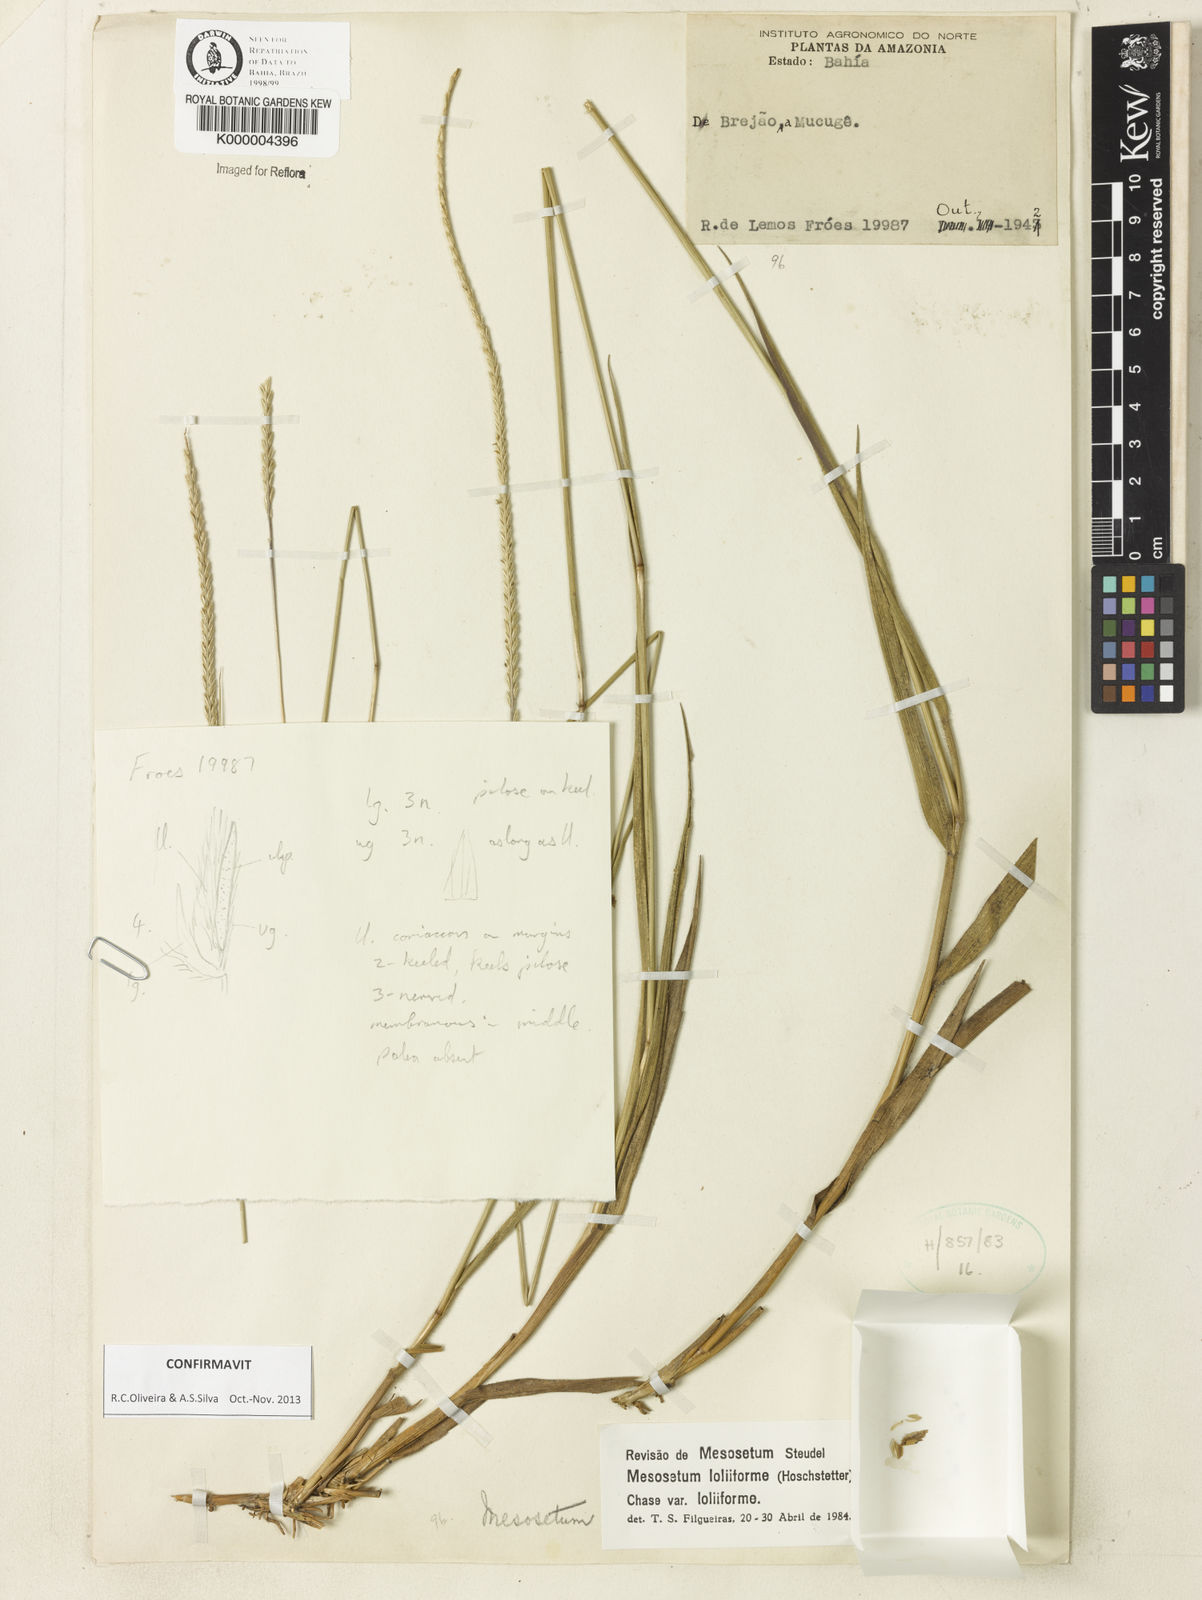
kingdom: Plantae
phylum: Tracheophyta
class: Liliopsida
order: Poales
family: Poaceae
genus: Mesosetum
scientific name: Mesosetum
